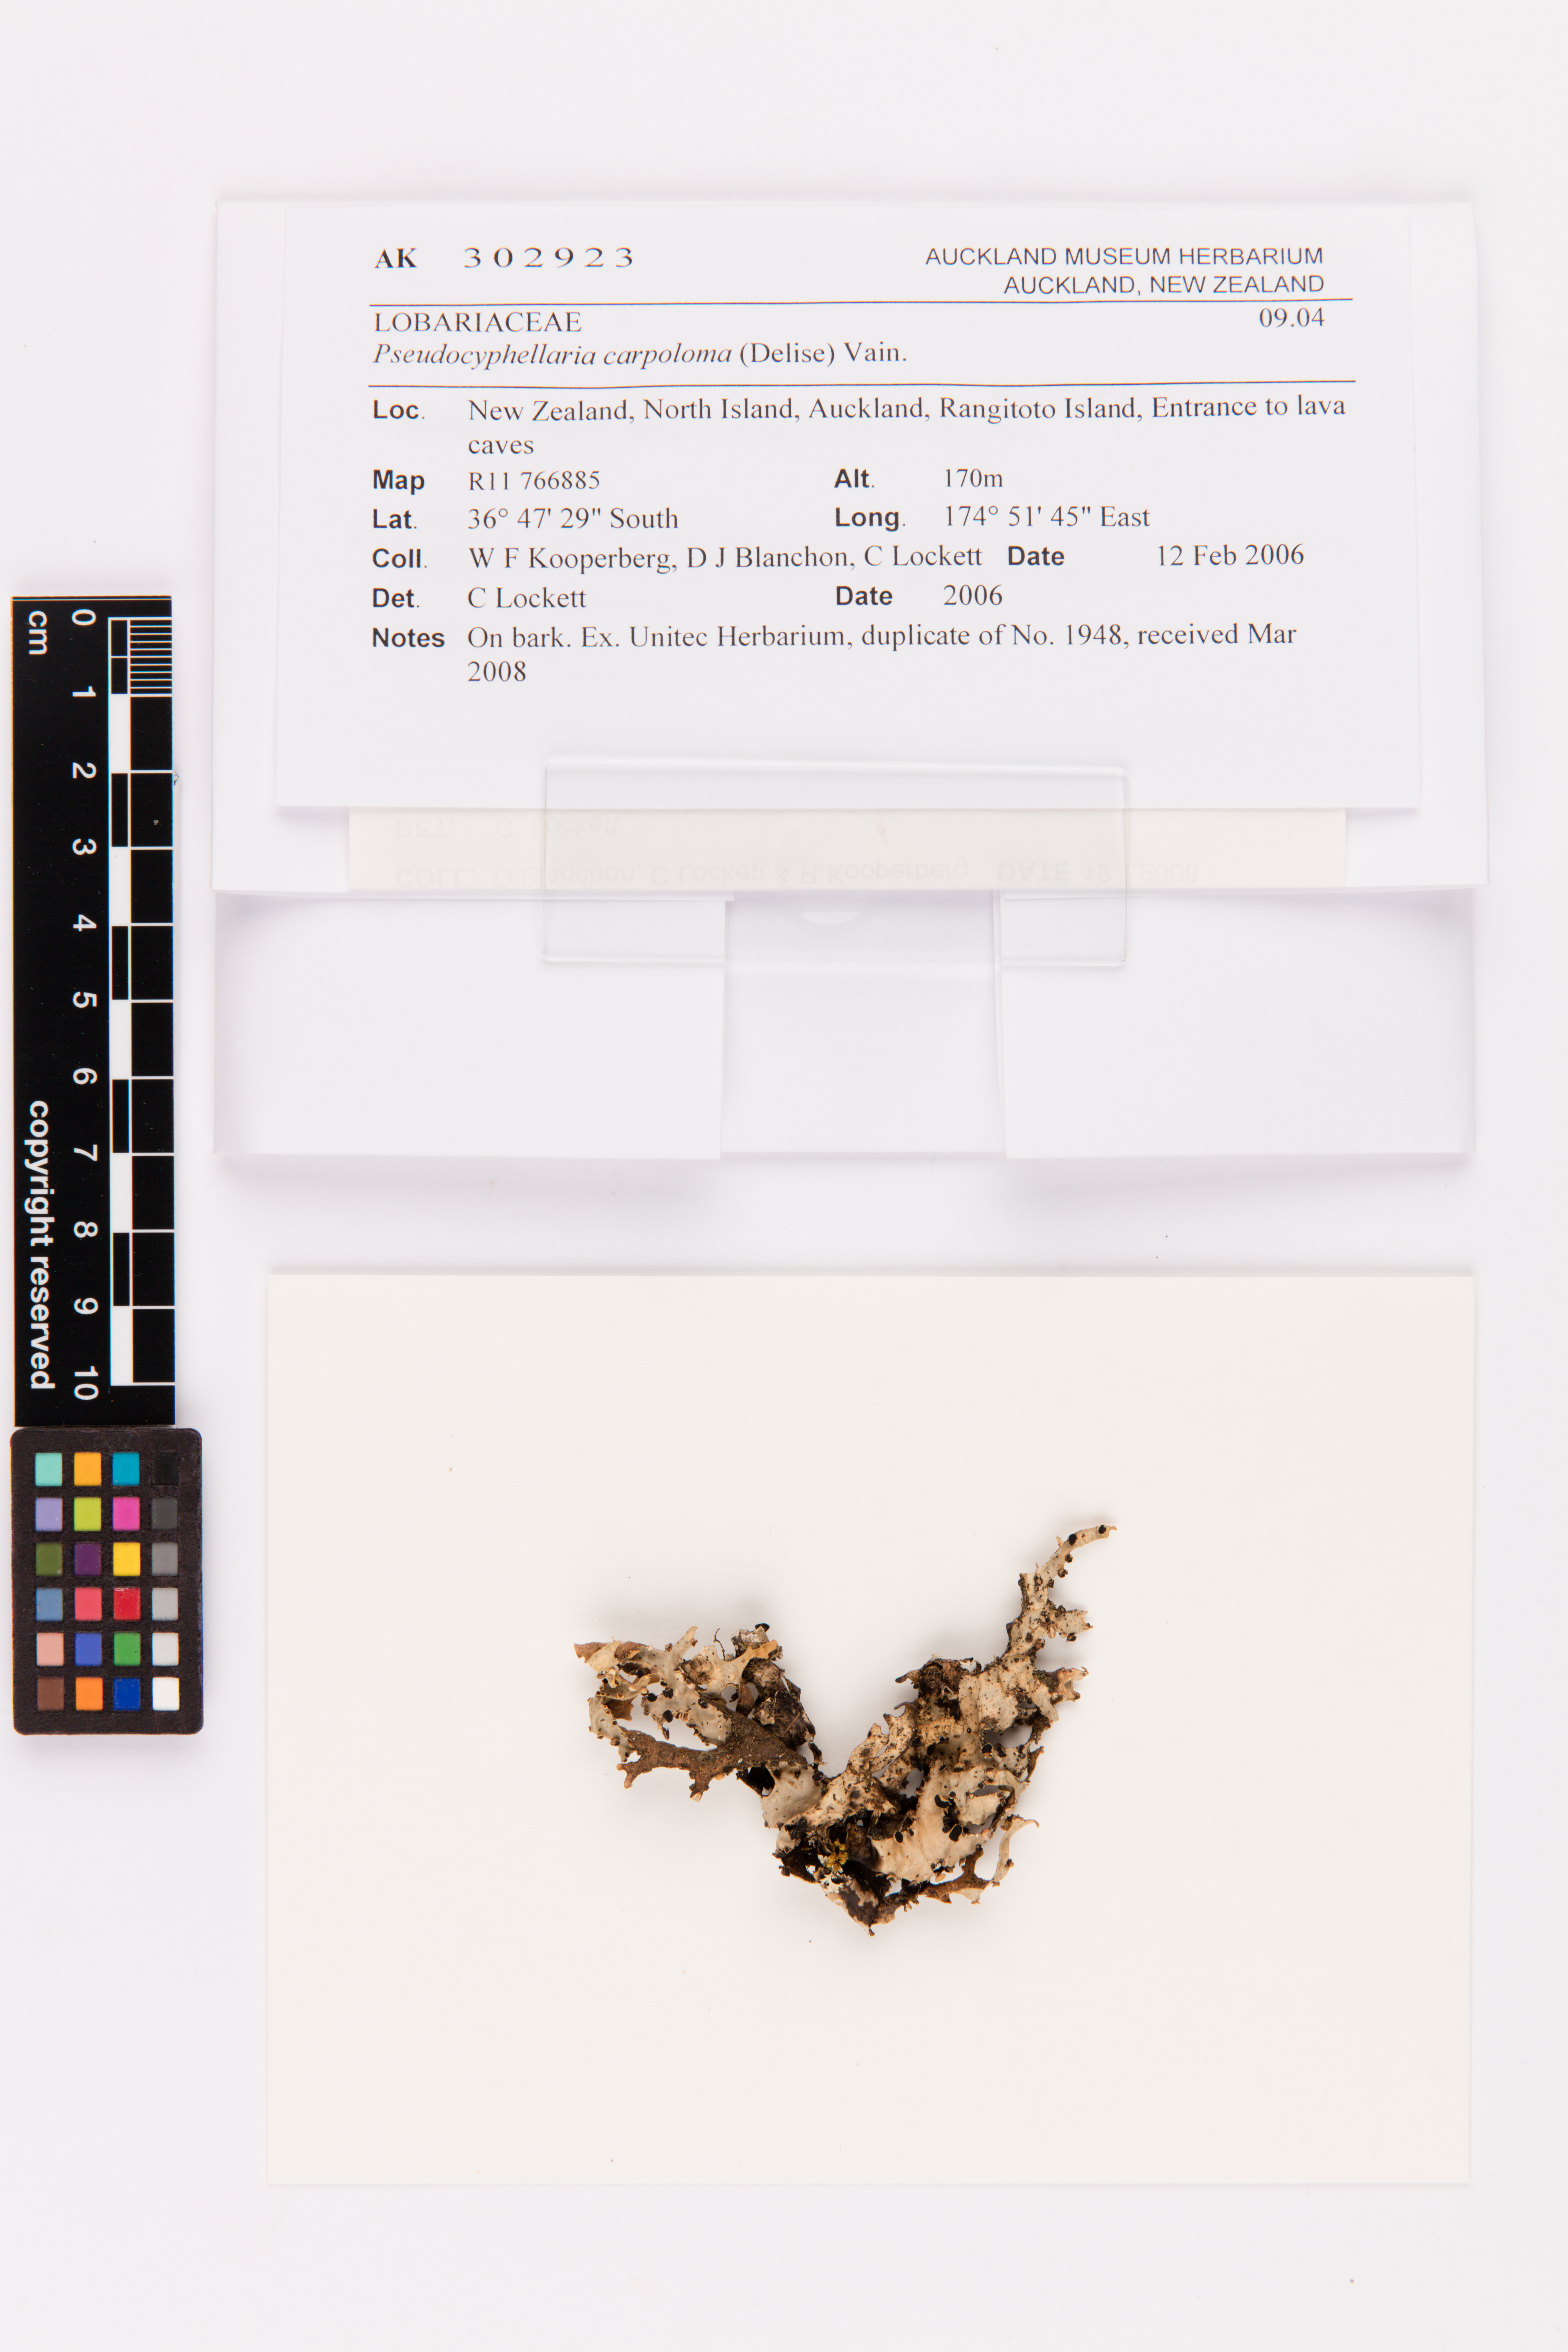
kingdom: Fungi
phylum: Ascomycota
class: Lecanoromycetes
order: Peltigerales
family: Lobariaceae
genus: Pseudocyphellaria
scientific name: Pseudocyphellaria carpoloma
